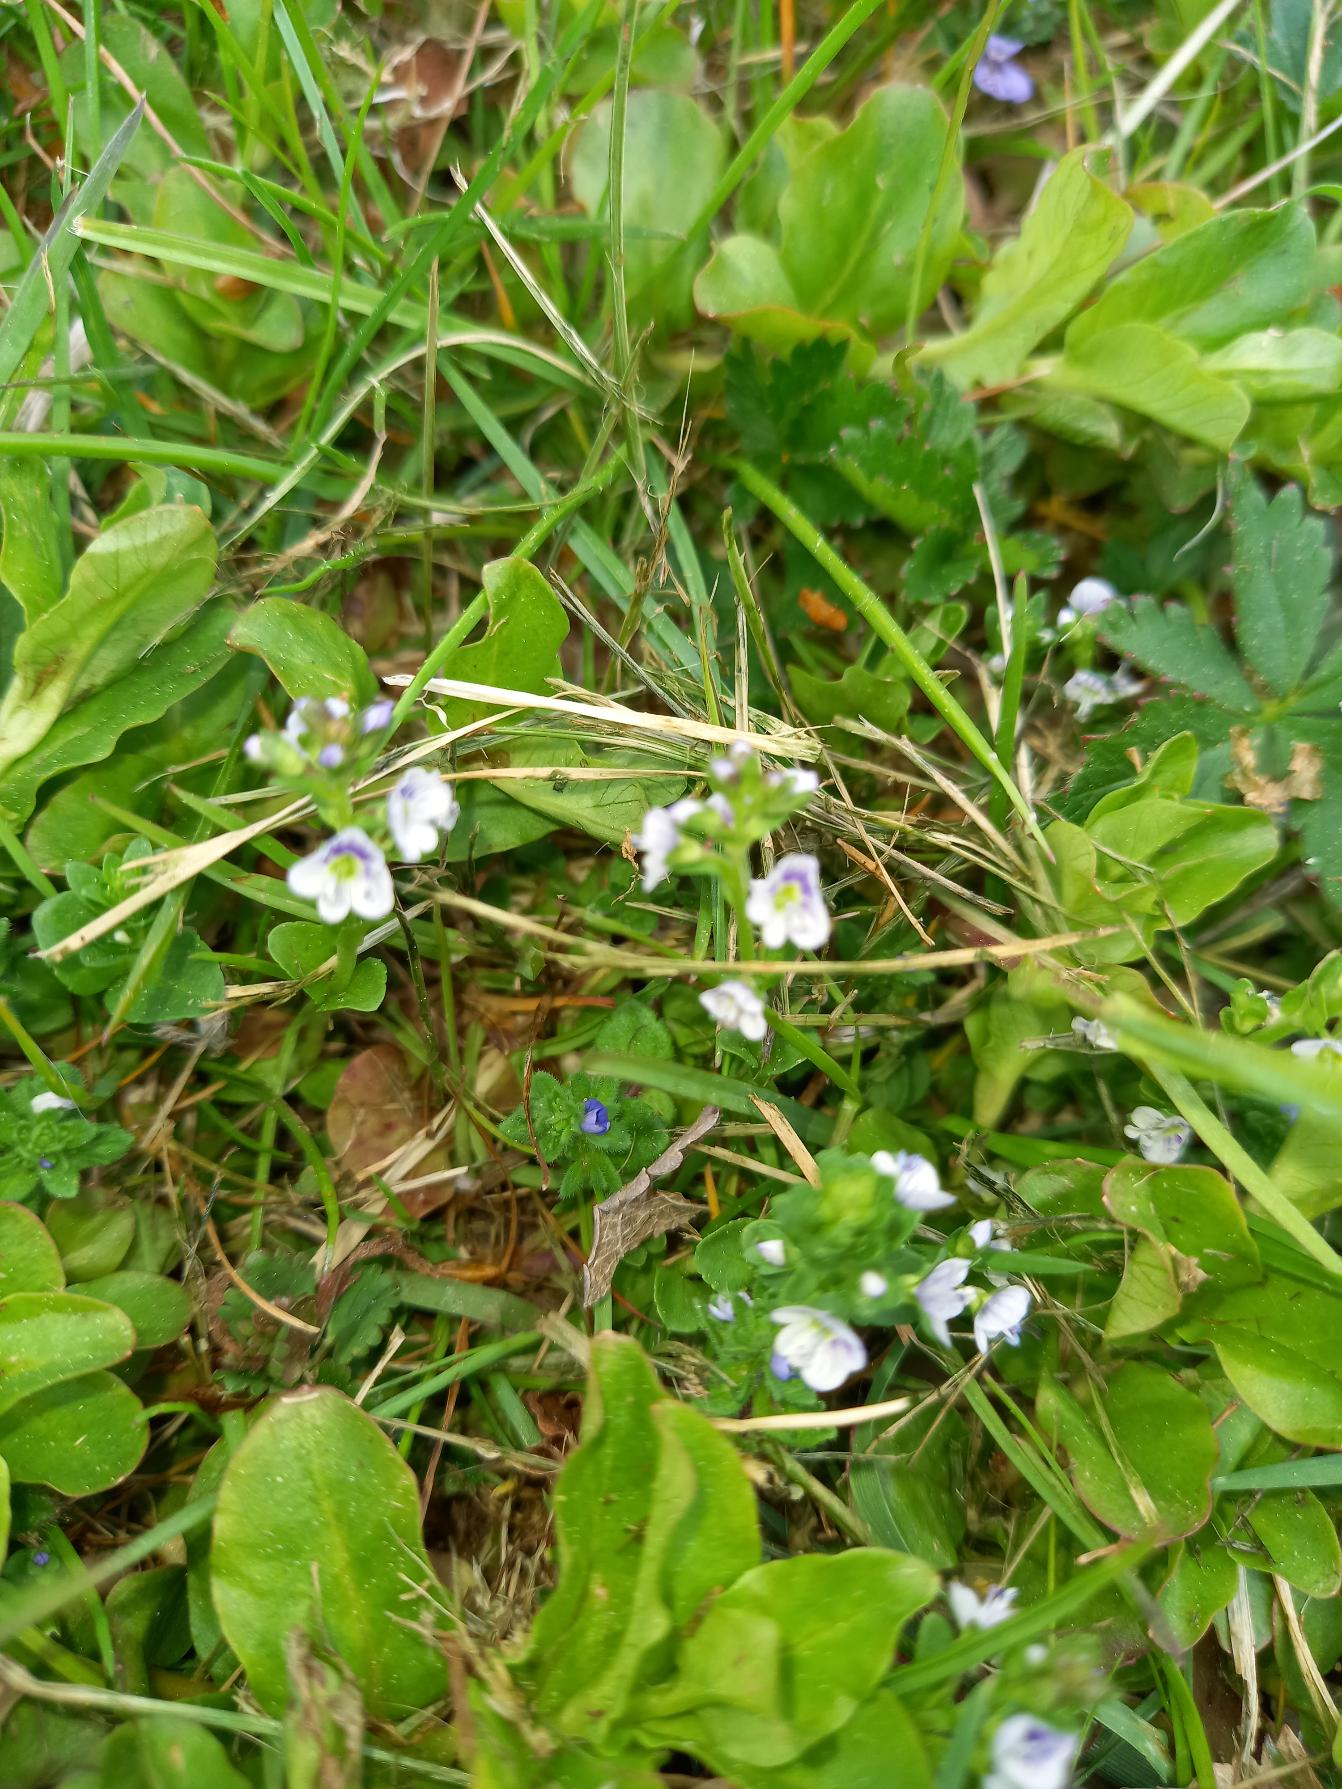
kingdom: Plantae
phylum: Tracheophyta
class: Magnoliopsida
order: Lamiales
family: Plantaginaceae
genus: Veronica
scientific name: Veronica serpyllifolia
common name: Glat ærenpris
